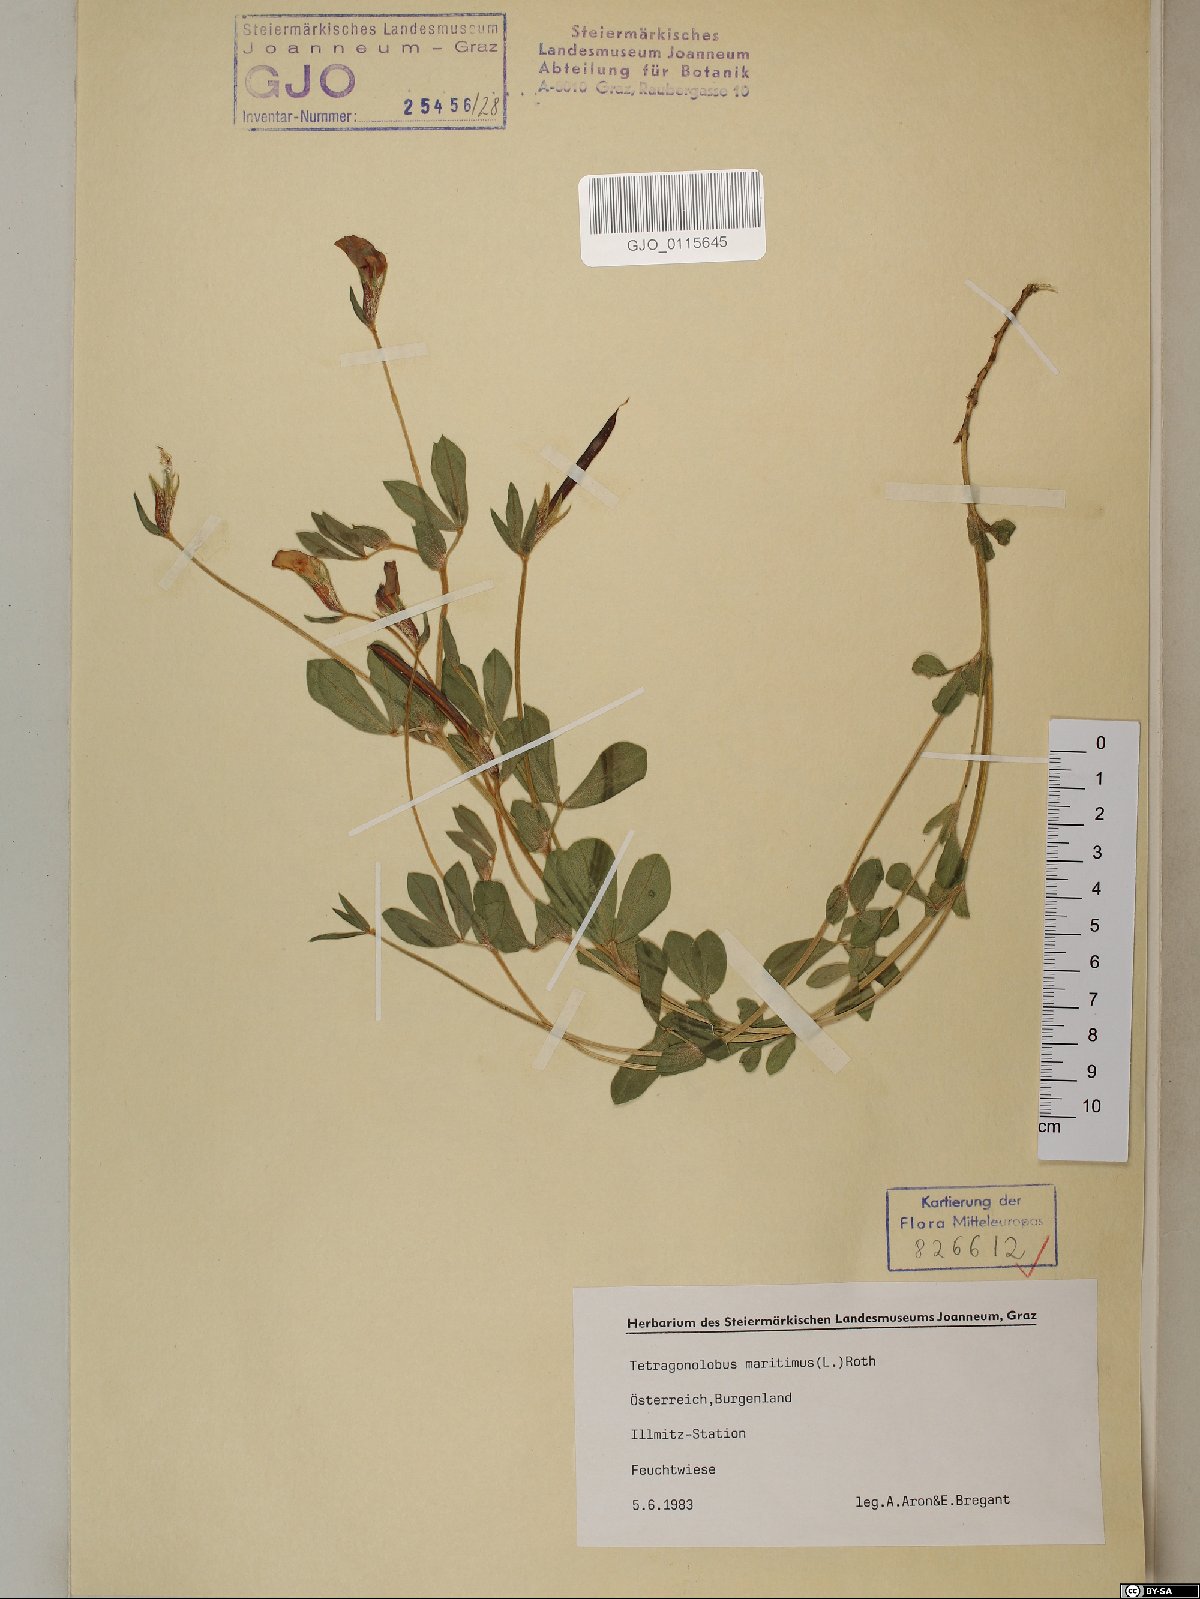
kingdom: Plantae
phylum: Tracheophyta
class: Magnoliopsida
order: Fabales
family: Fabaceae
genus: Lotus
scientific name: Lotus maritimus
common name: Dragon's-teeth
